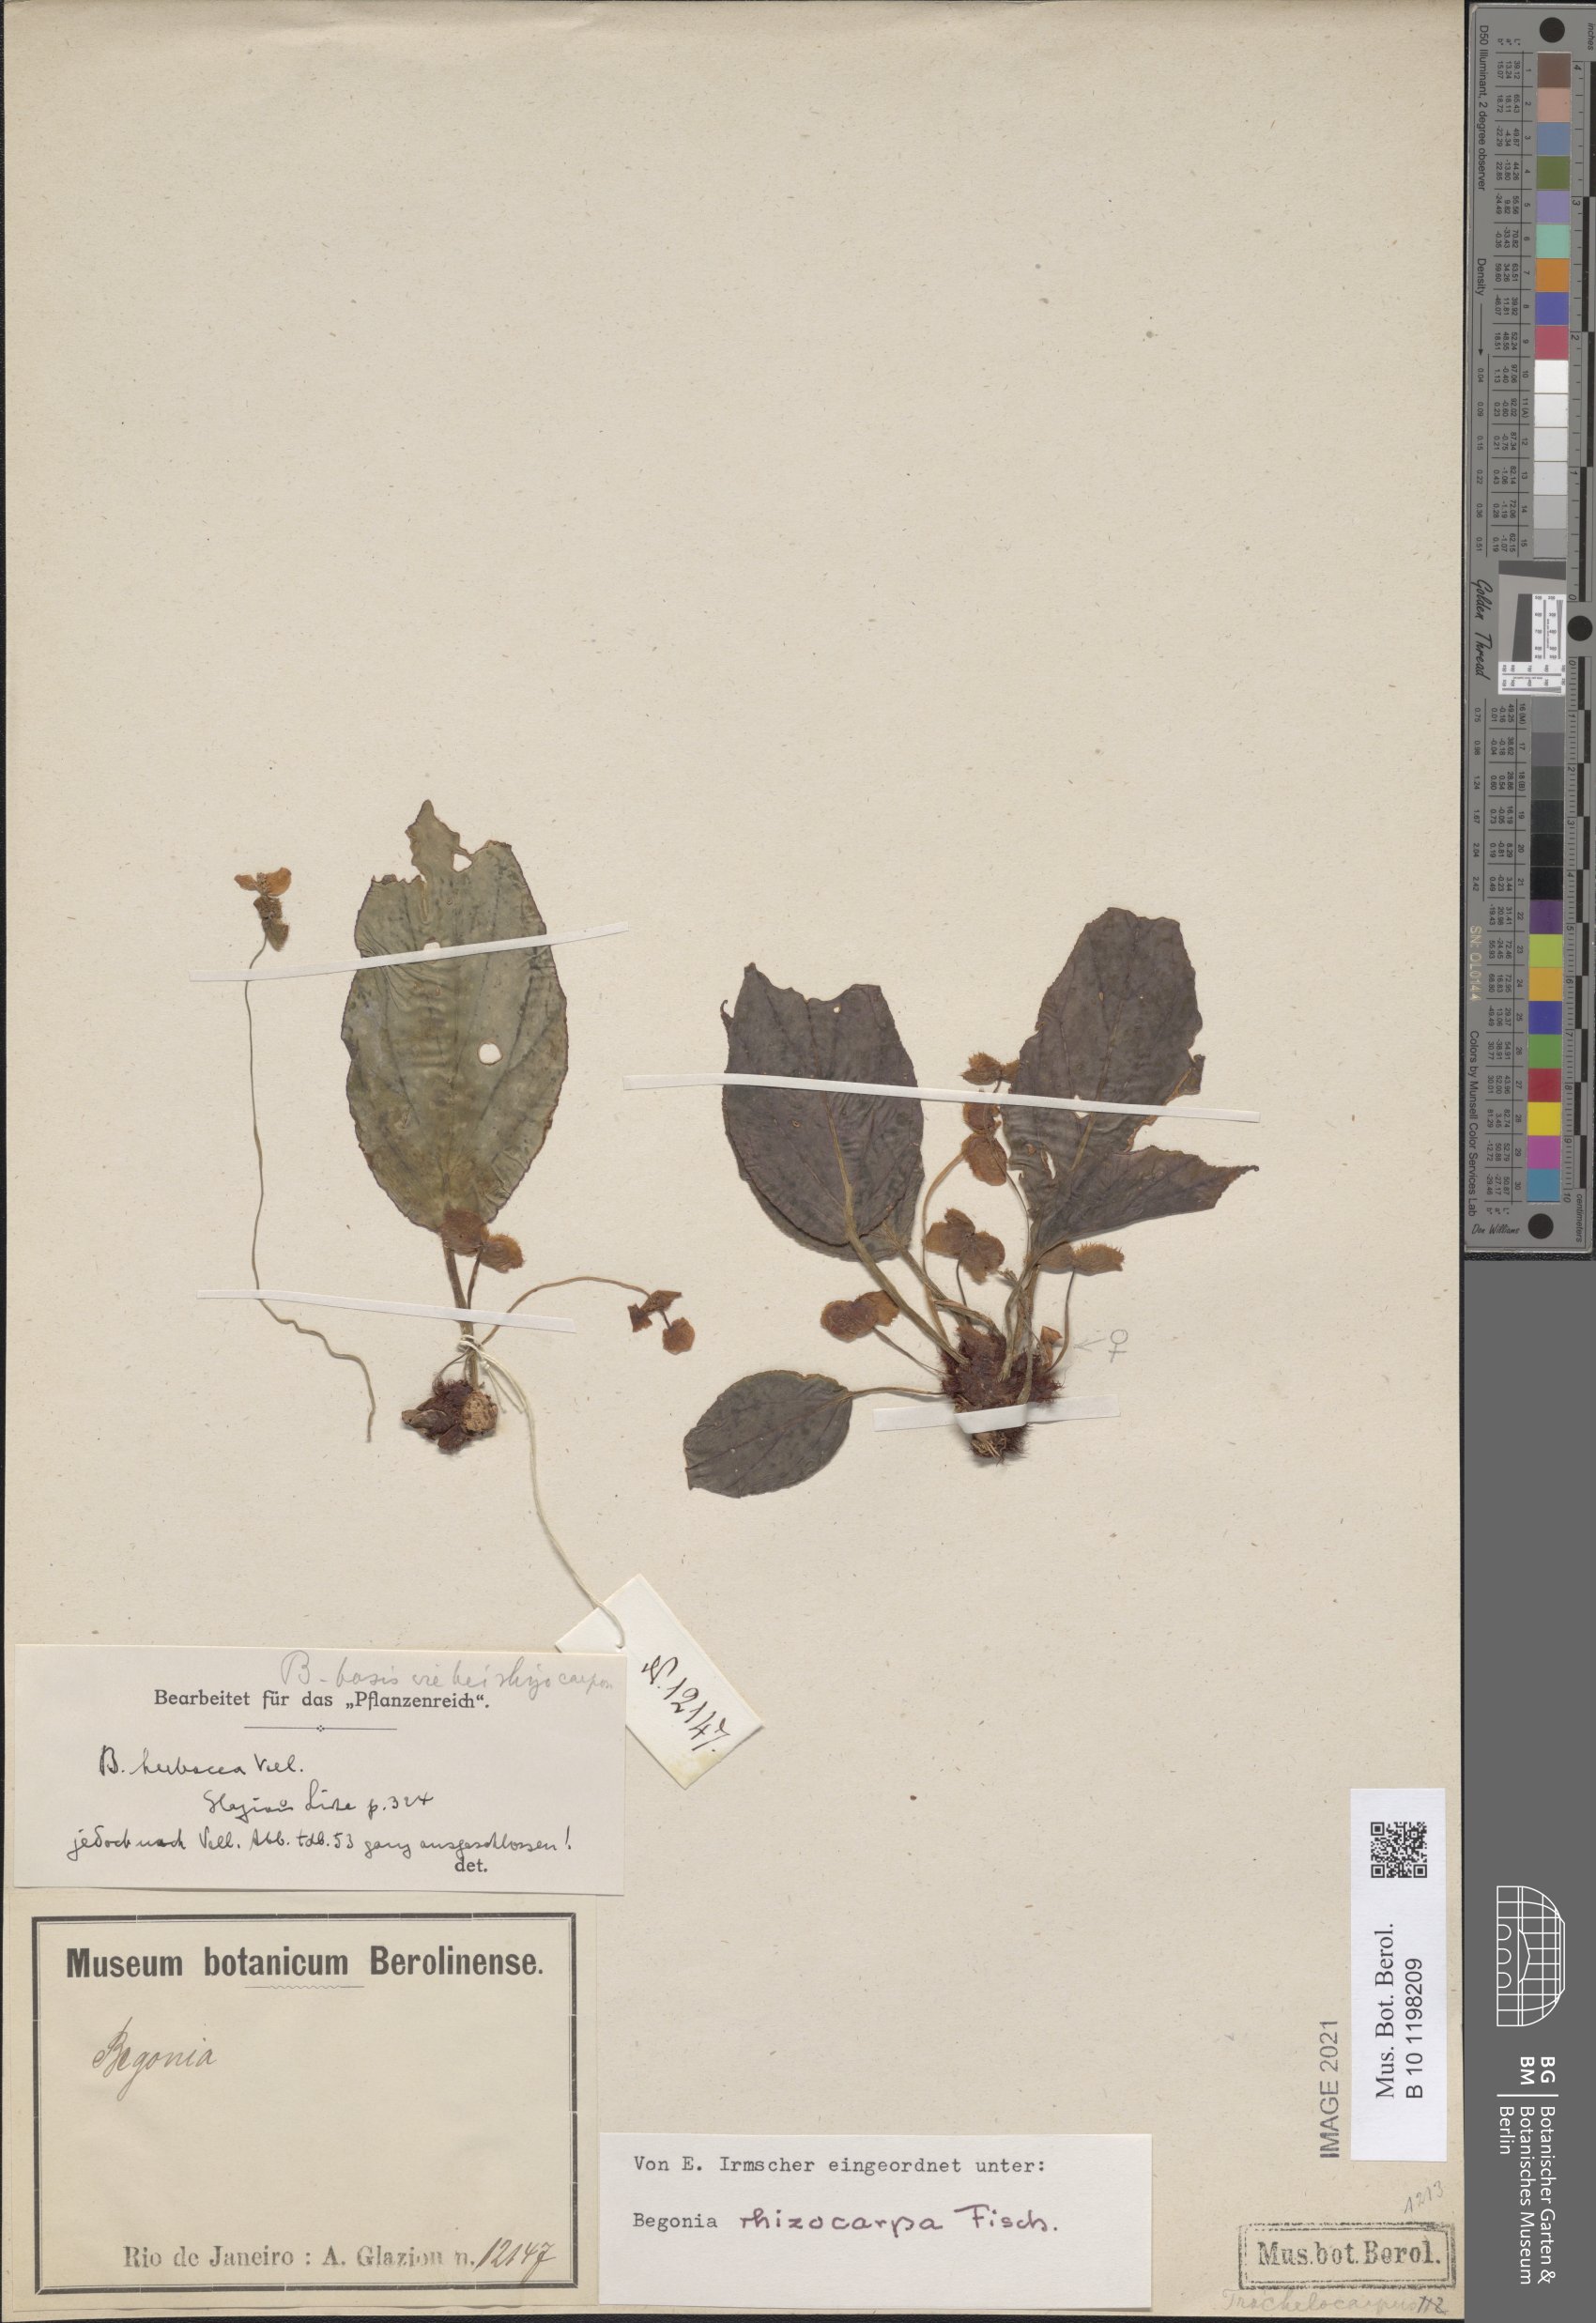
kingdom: Plantae
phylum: Tracheophyta
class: Magnoliopsida
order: Cucurbitales
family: Begoniaceae
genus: Begonia
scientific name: Begonia depauperata
